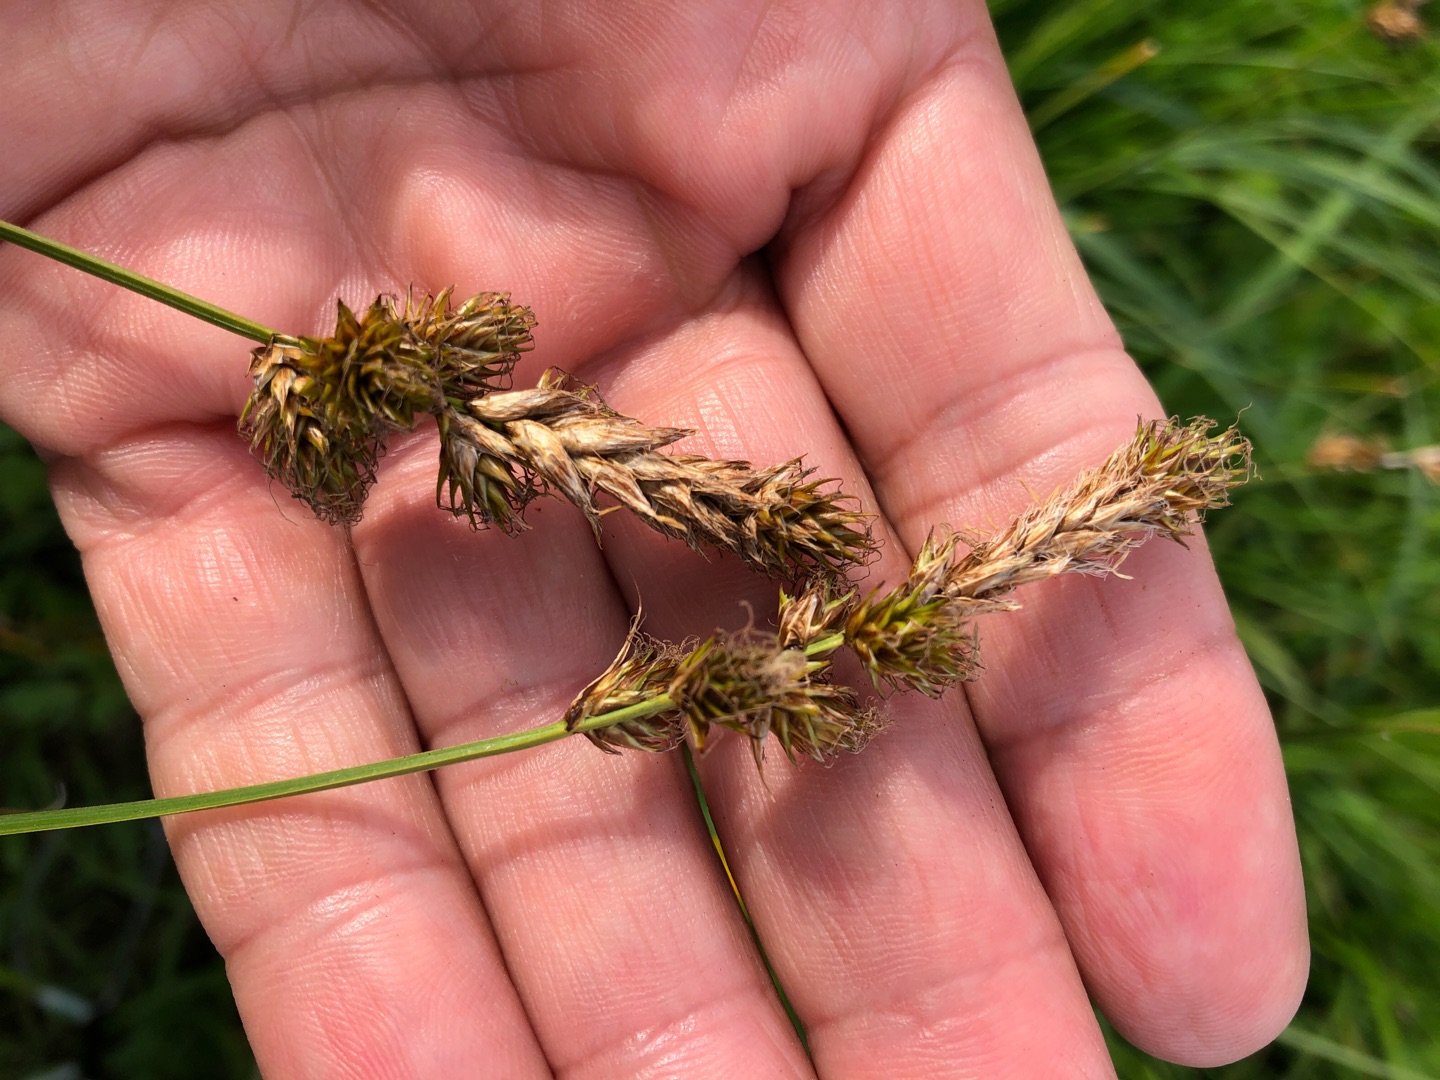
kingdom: Plantae
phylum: Tracheophyta
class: Liliopsida
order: Poales
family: Cyperaceae
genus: Carex
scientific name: Carex disticha
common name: Toradet star
